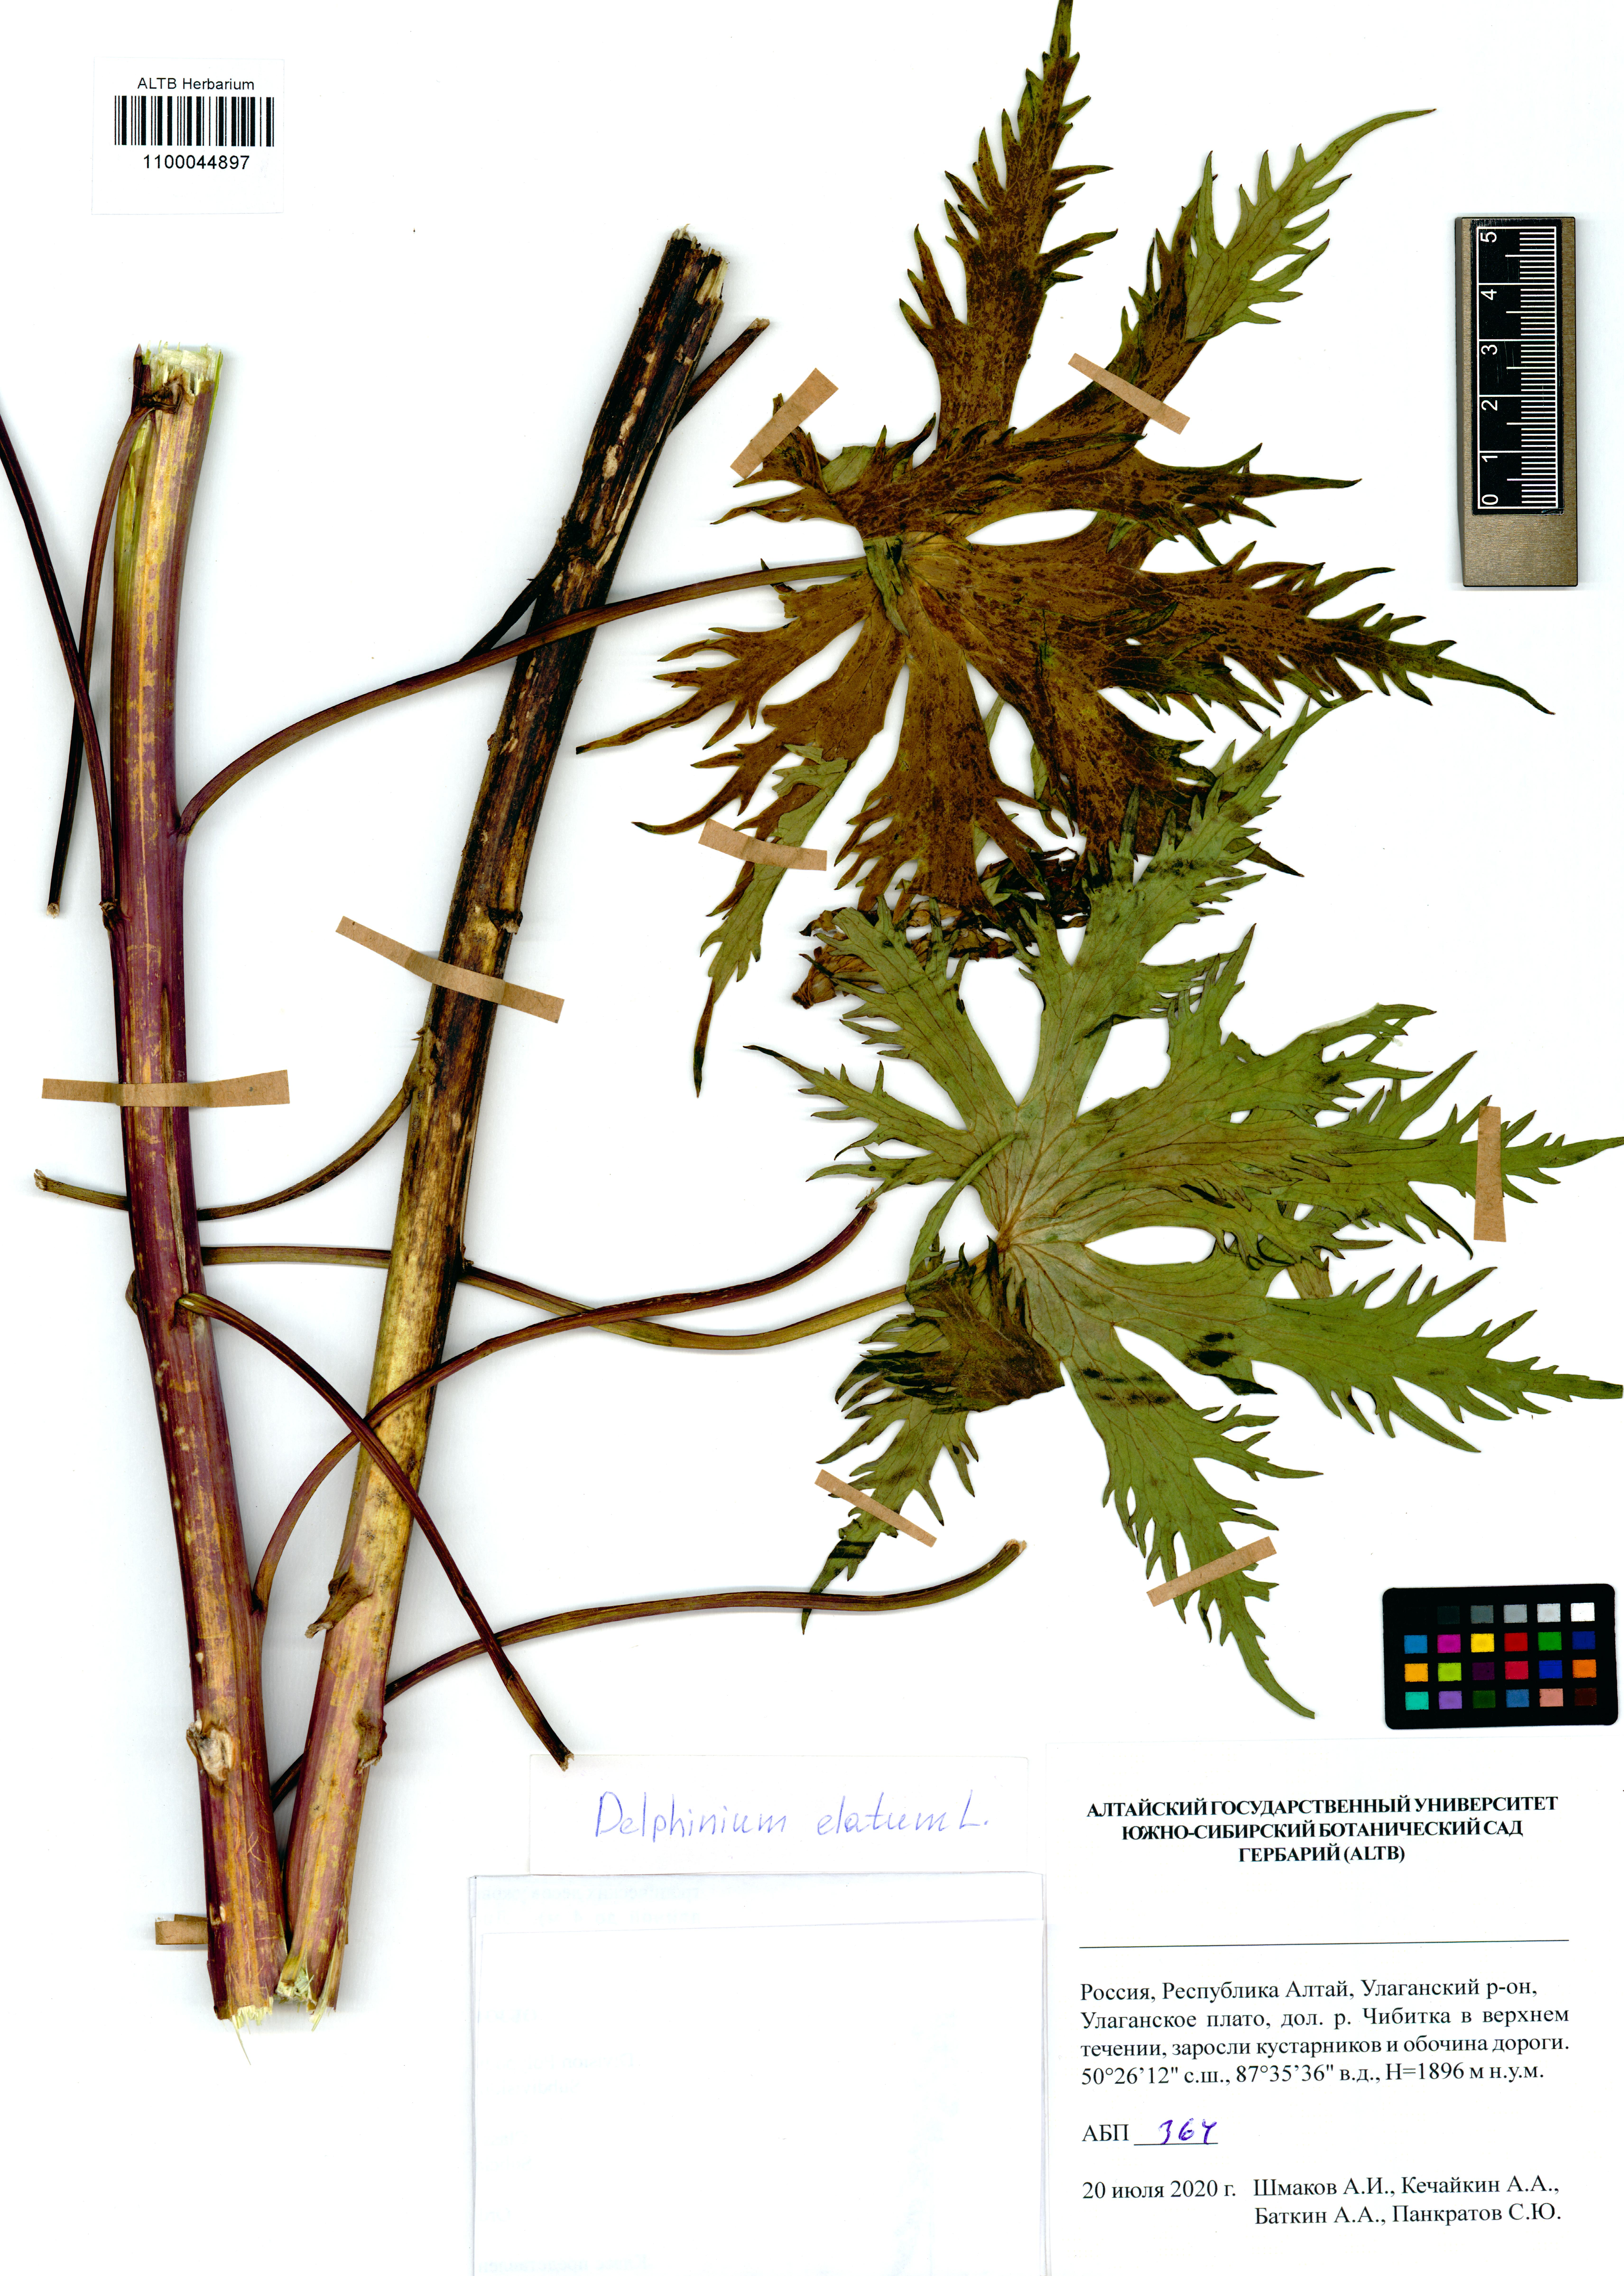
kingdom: Plantae
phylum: Tracheophyta
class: Magnoliopsida
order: Ranunculales
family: Ranunculaceae
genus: Delphinium
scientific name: Delphinium elatum
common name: Candle larkspur
